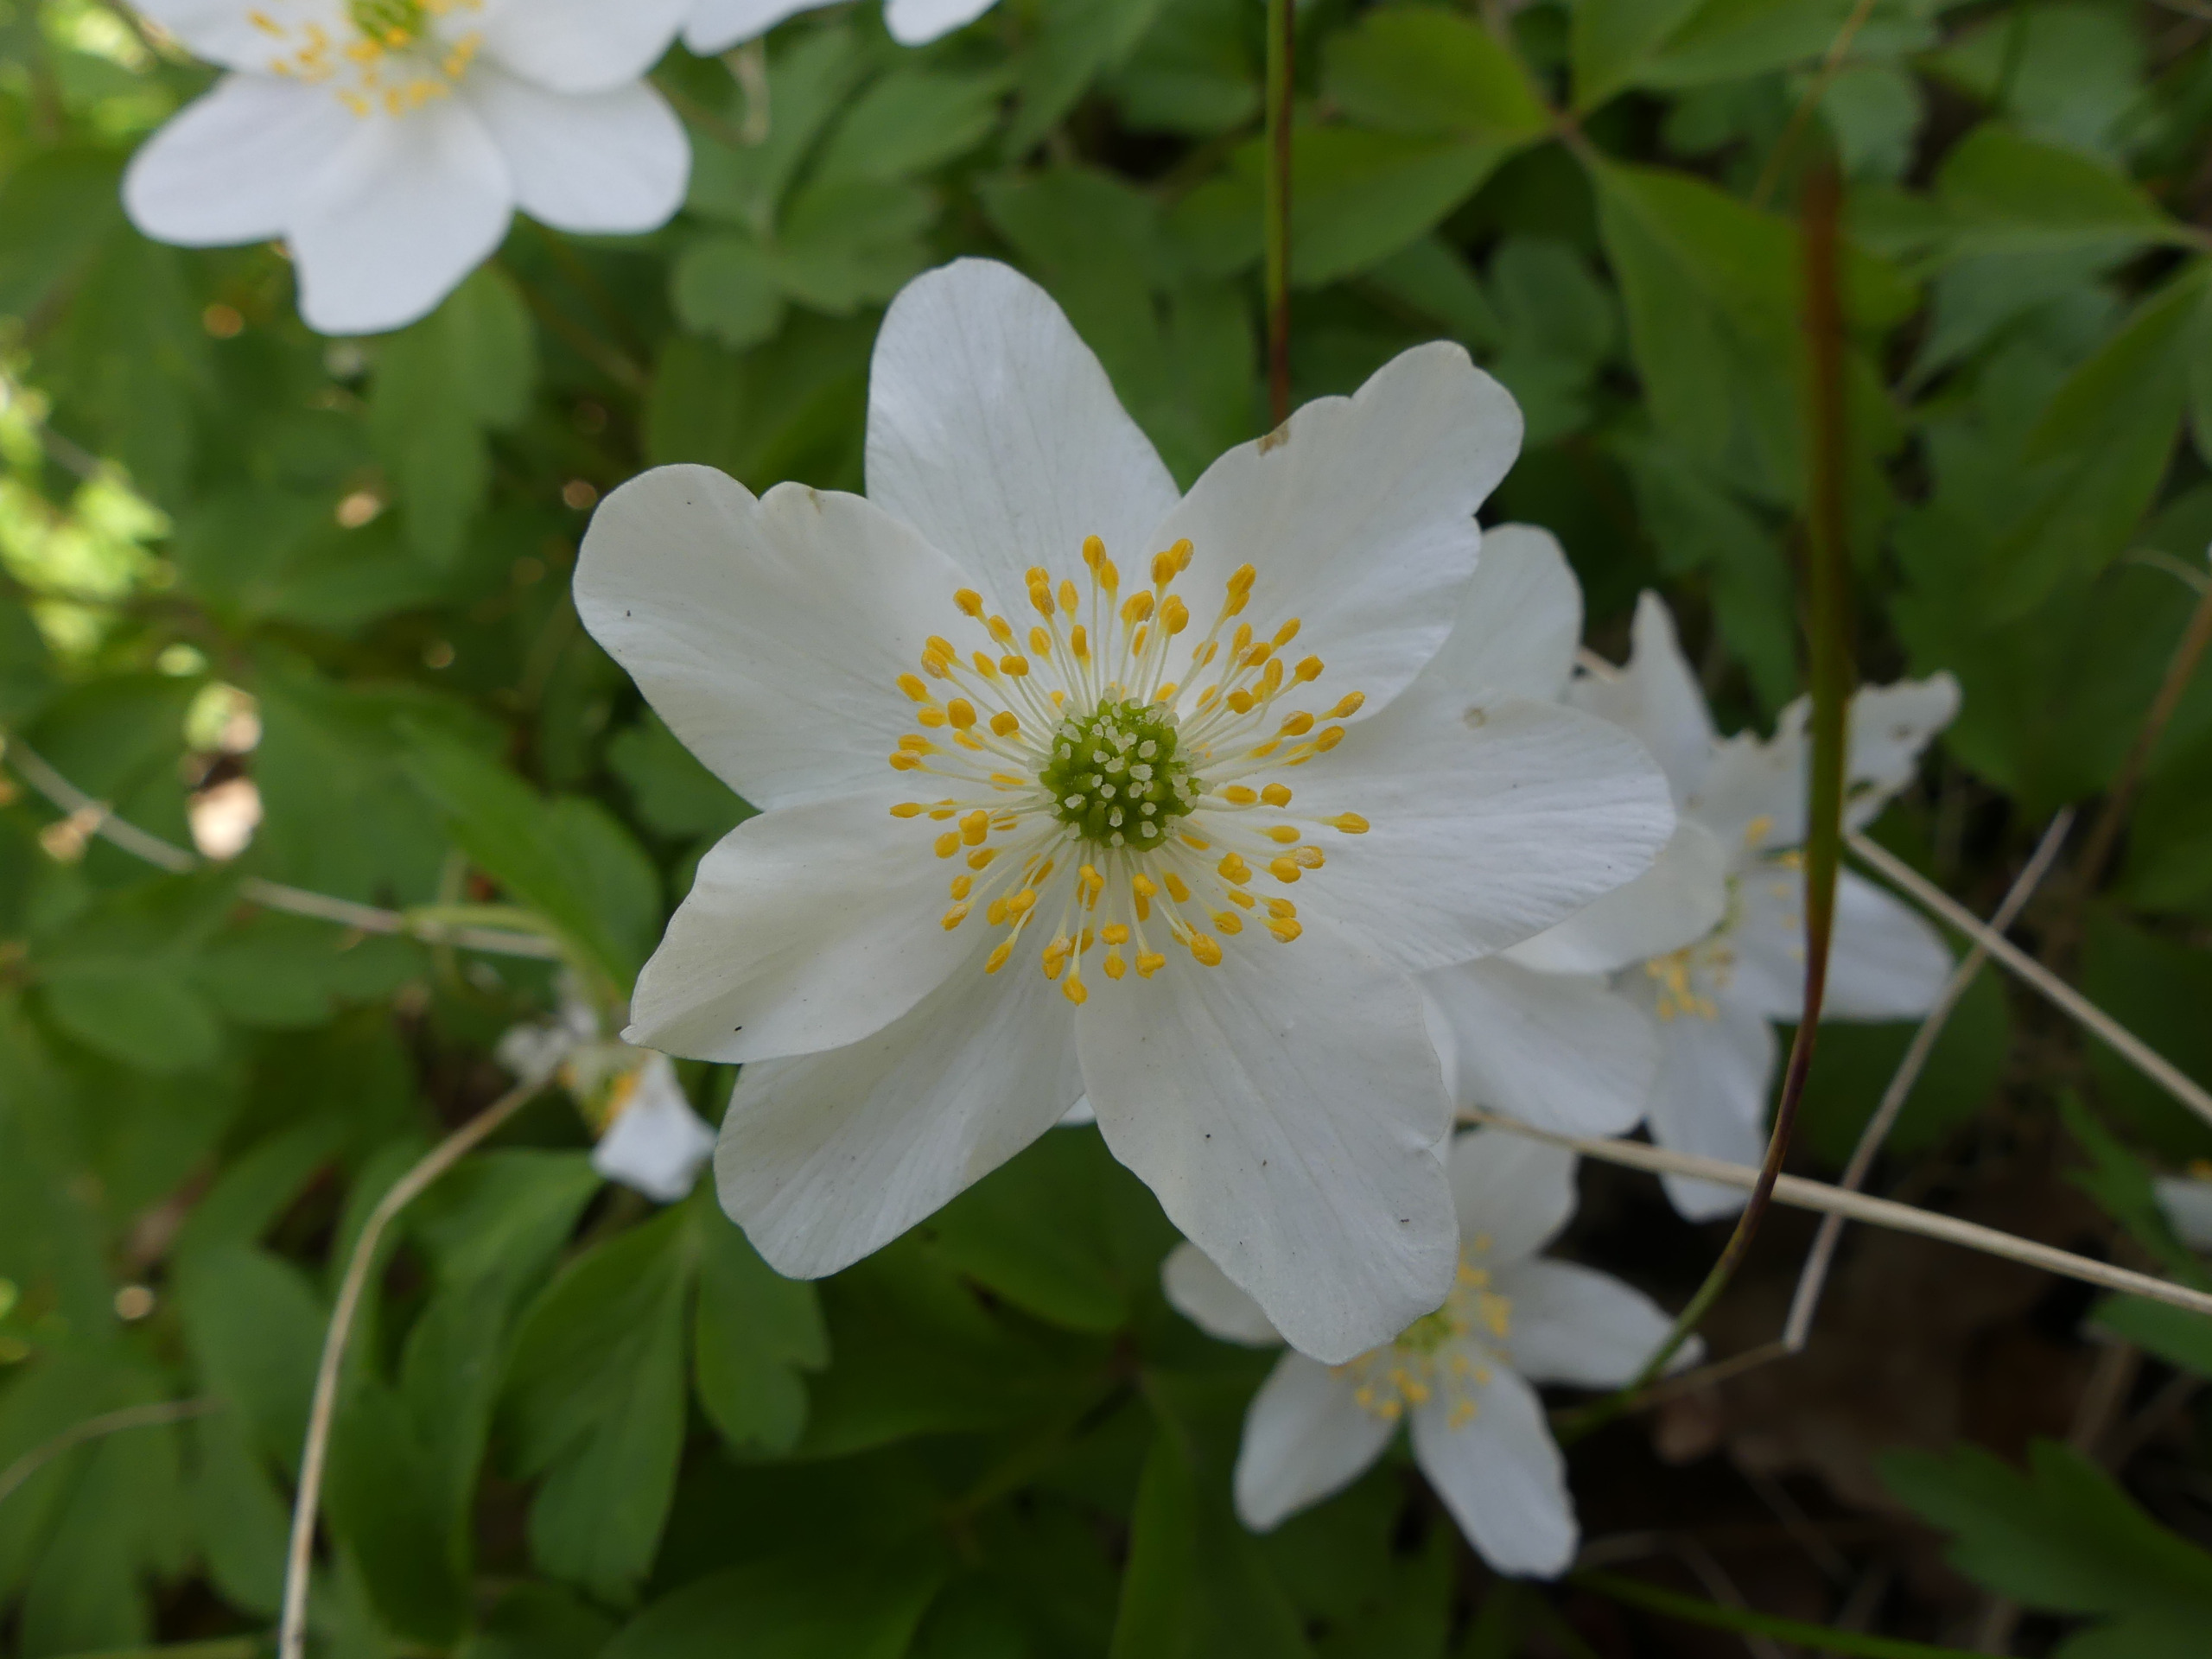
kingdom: Plantae
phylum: Tracheophyta
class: Magnoliopsida
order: Ranunculales
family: Ranunculaceae
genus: Anemone
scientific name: Anemone nemorosa
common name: Hvid anemone
